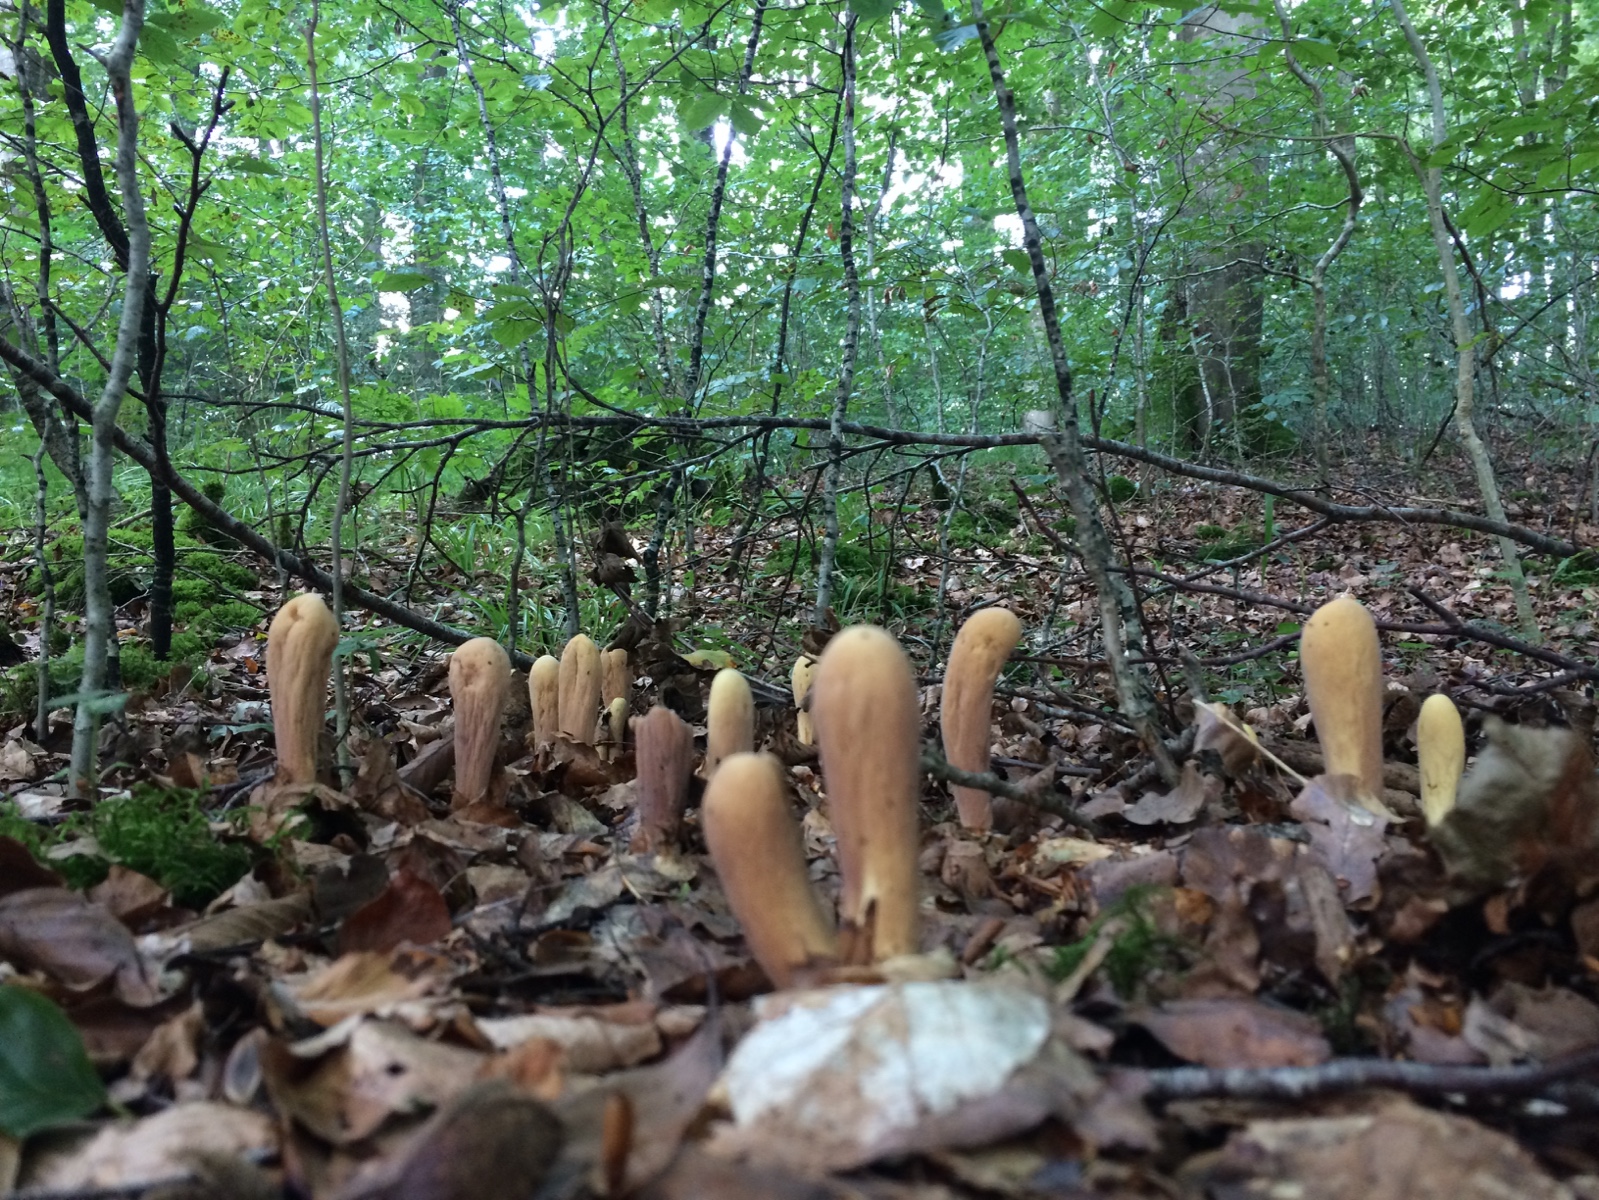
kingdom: Fungi
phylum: Basidiomycota
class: Agaricomycetes
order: Gomphales
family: Clavariadelphaceae
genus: Clavariadelphus
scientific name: Clavariadelphus pistillaris
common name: herkules-kæmpekølle
